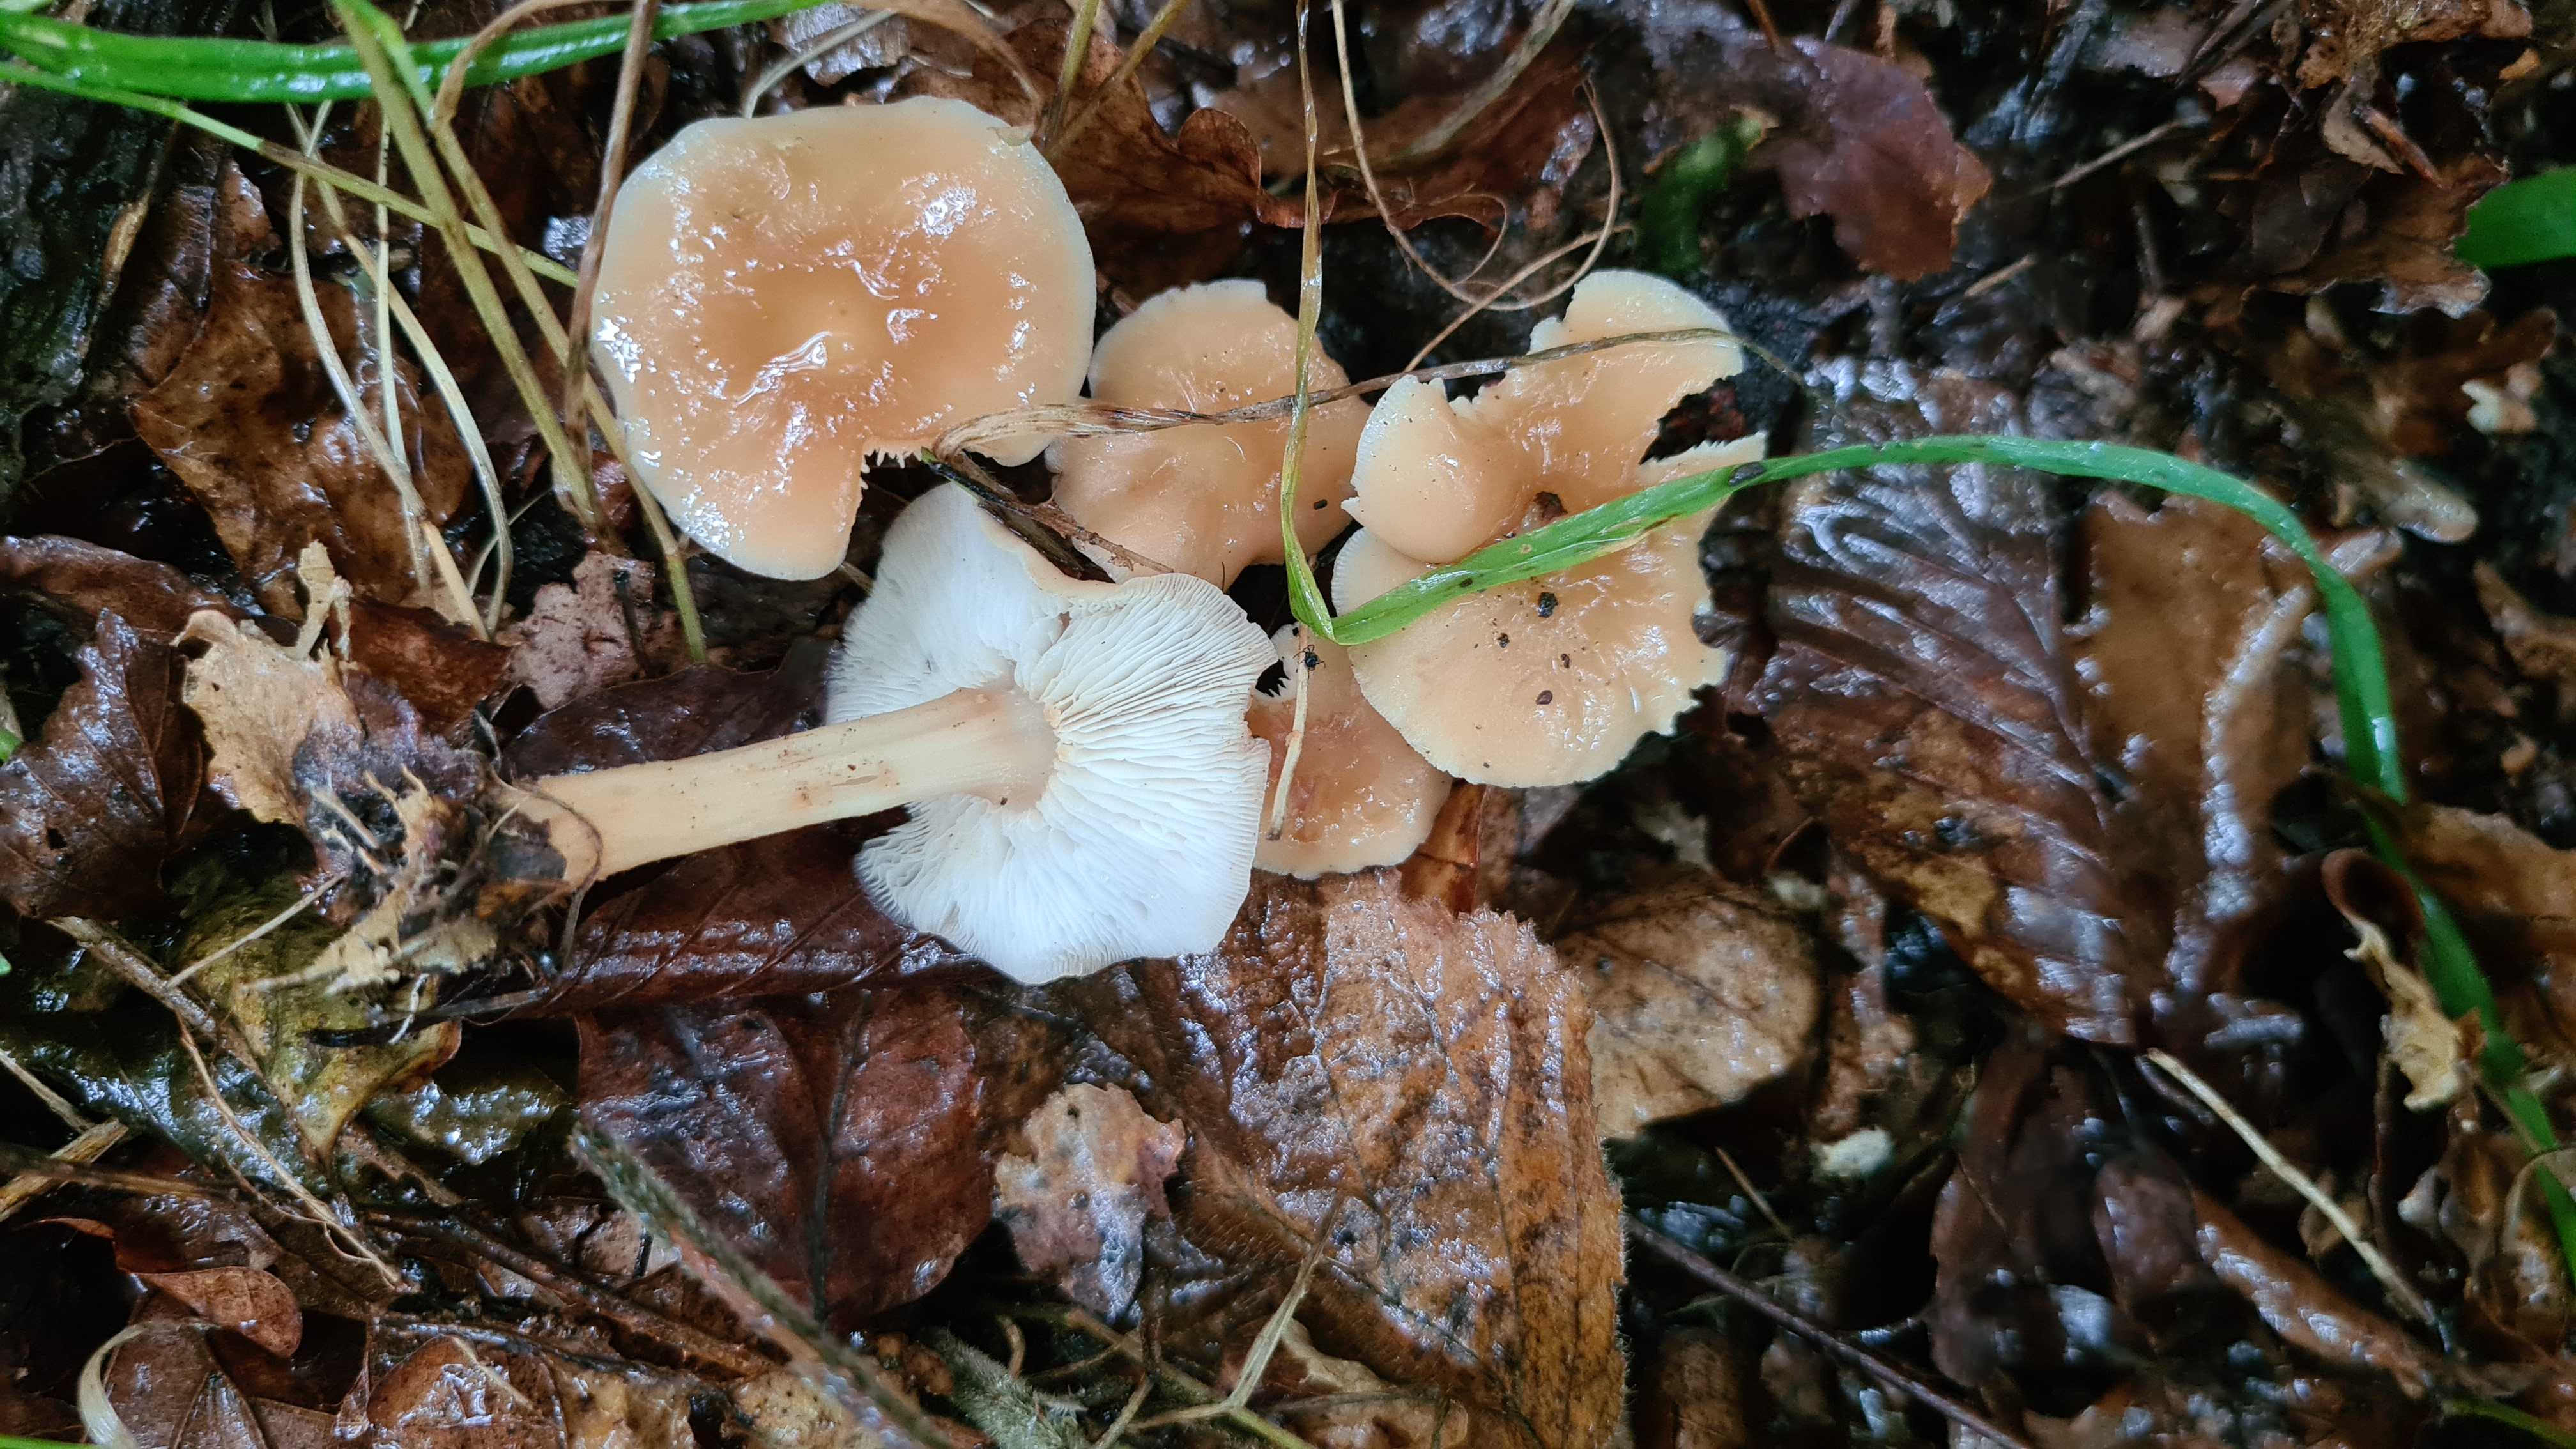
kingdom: Fungi
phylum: Basidiomycota
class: Agaricomycetes
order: Agaricales
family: Omphalotaceae
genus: Gymnopus
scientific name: Gymnopus aquosus
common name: bleg fladhat
